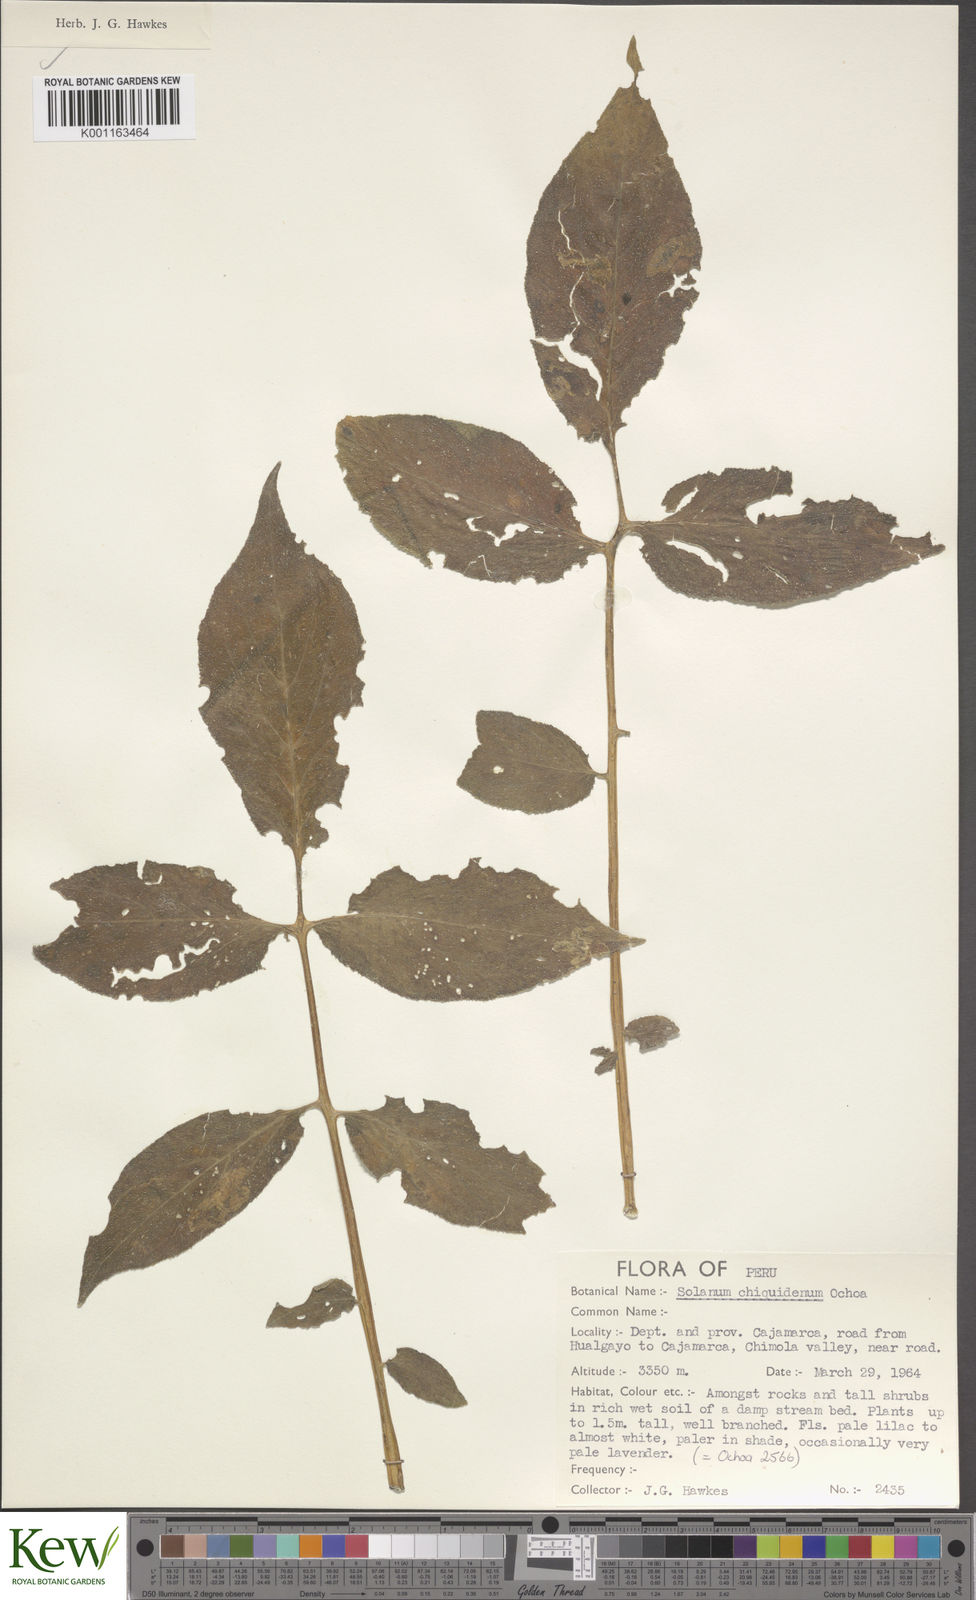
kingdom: Plantae
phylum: Tracheophyta
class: Magnoliopsida
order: Solanales
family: Solanaceae
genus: Solanum
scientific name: Solanum chiquidenum
